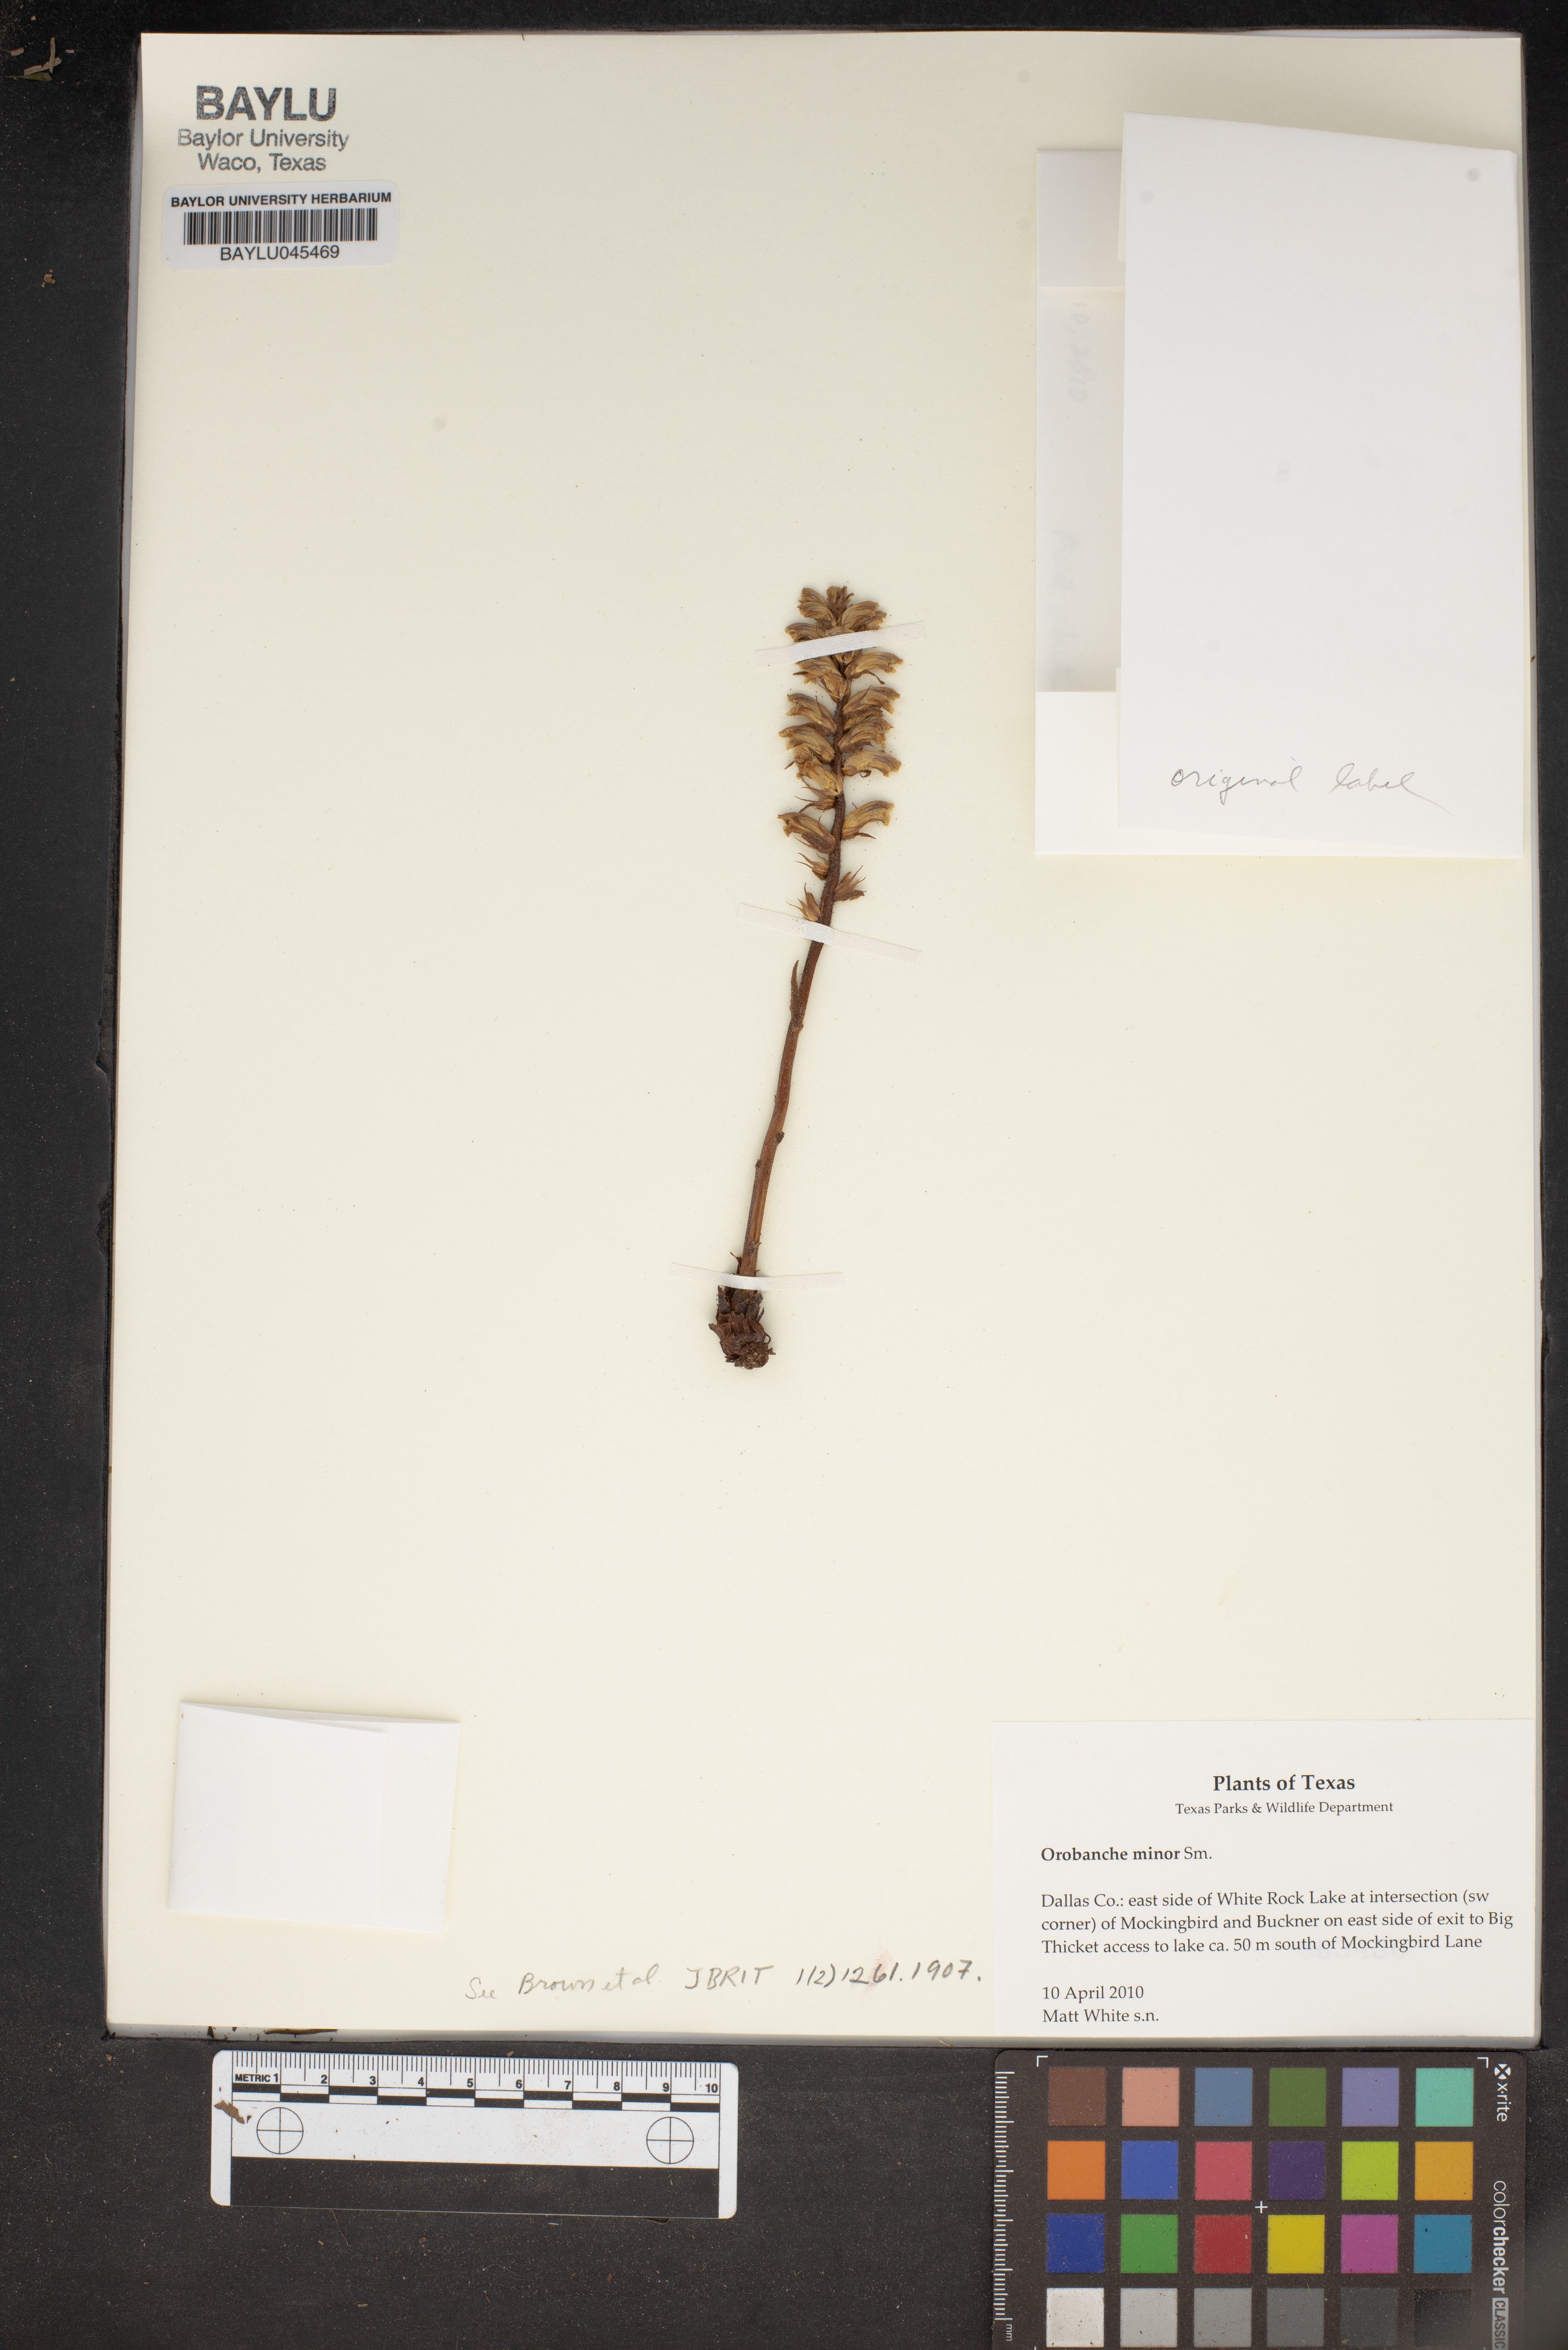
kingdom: Plantae
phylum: Tracheophyta
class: Magnoliopsida
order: Lamiales
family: Orobanchaceae
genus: Orobanche
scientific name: Orobanche minor
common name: Common broomrape
